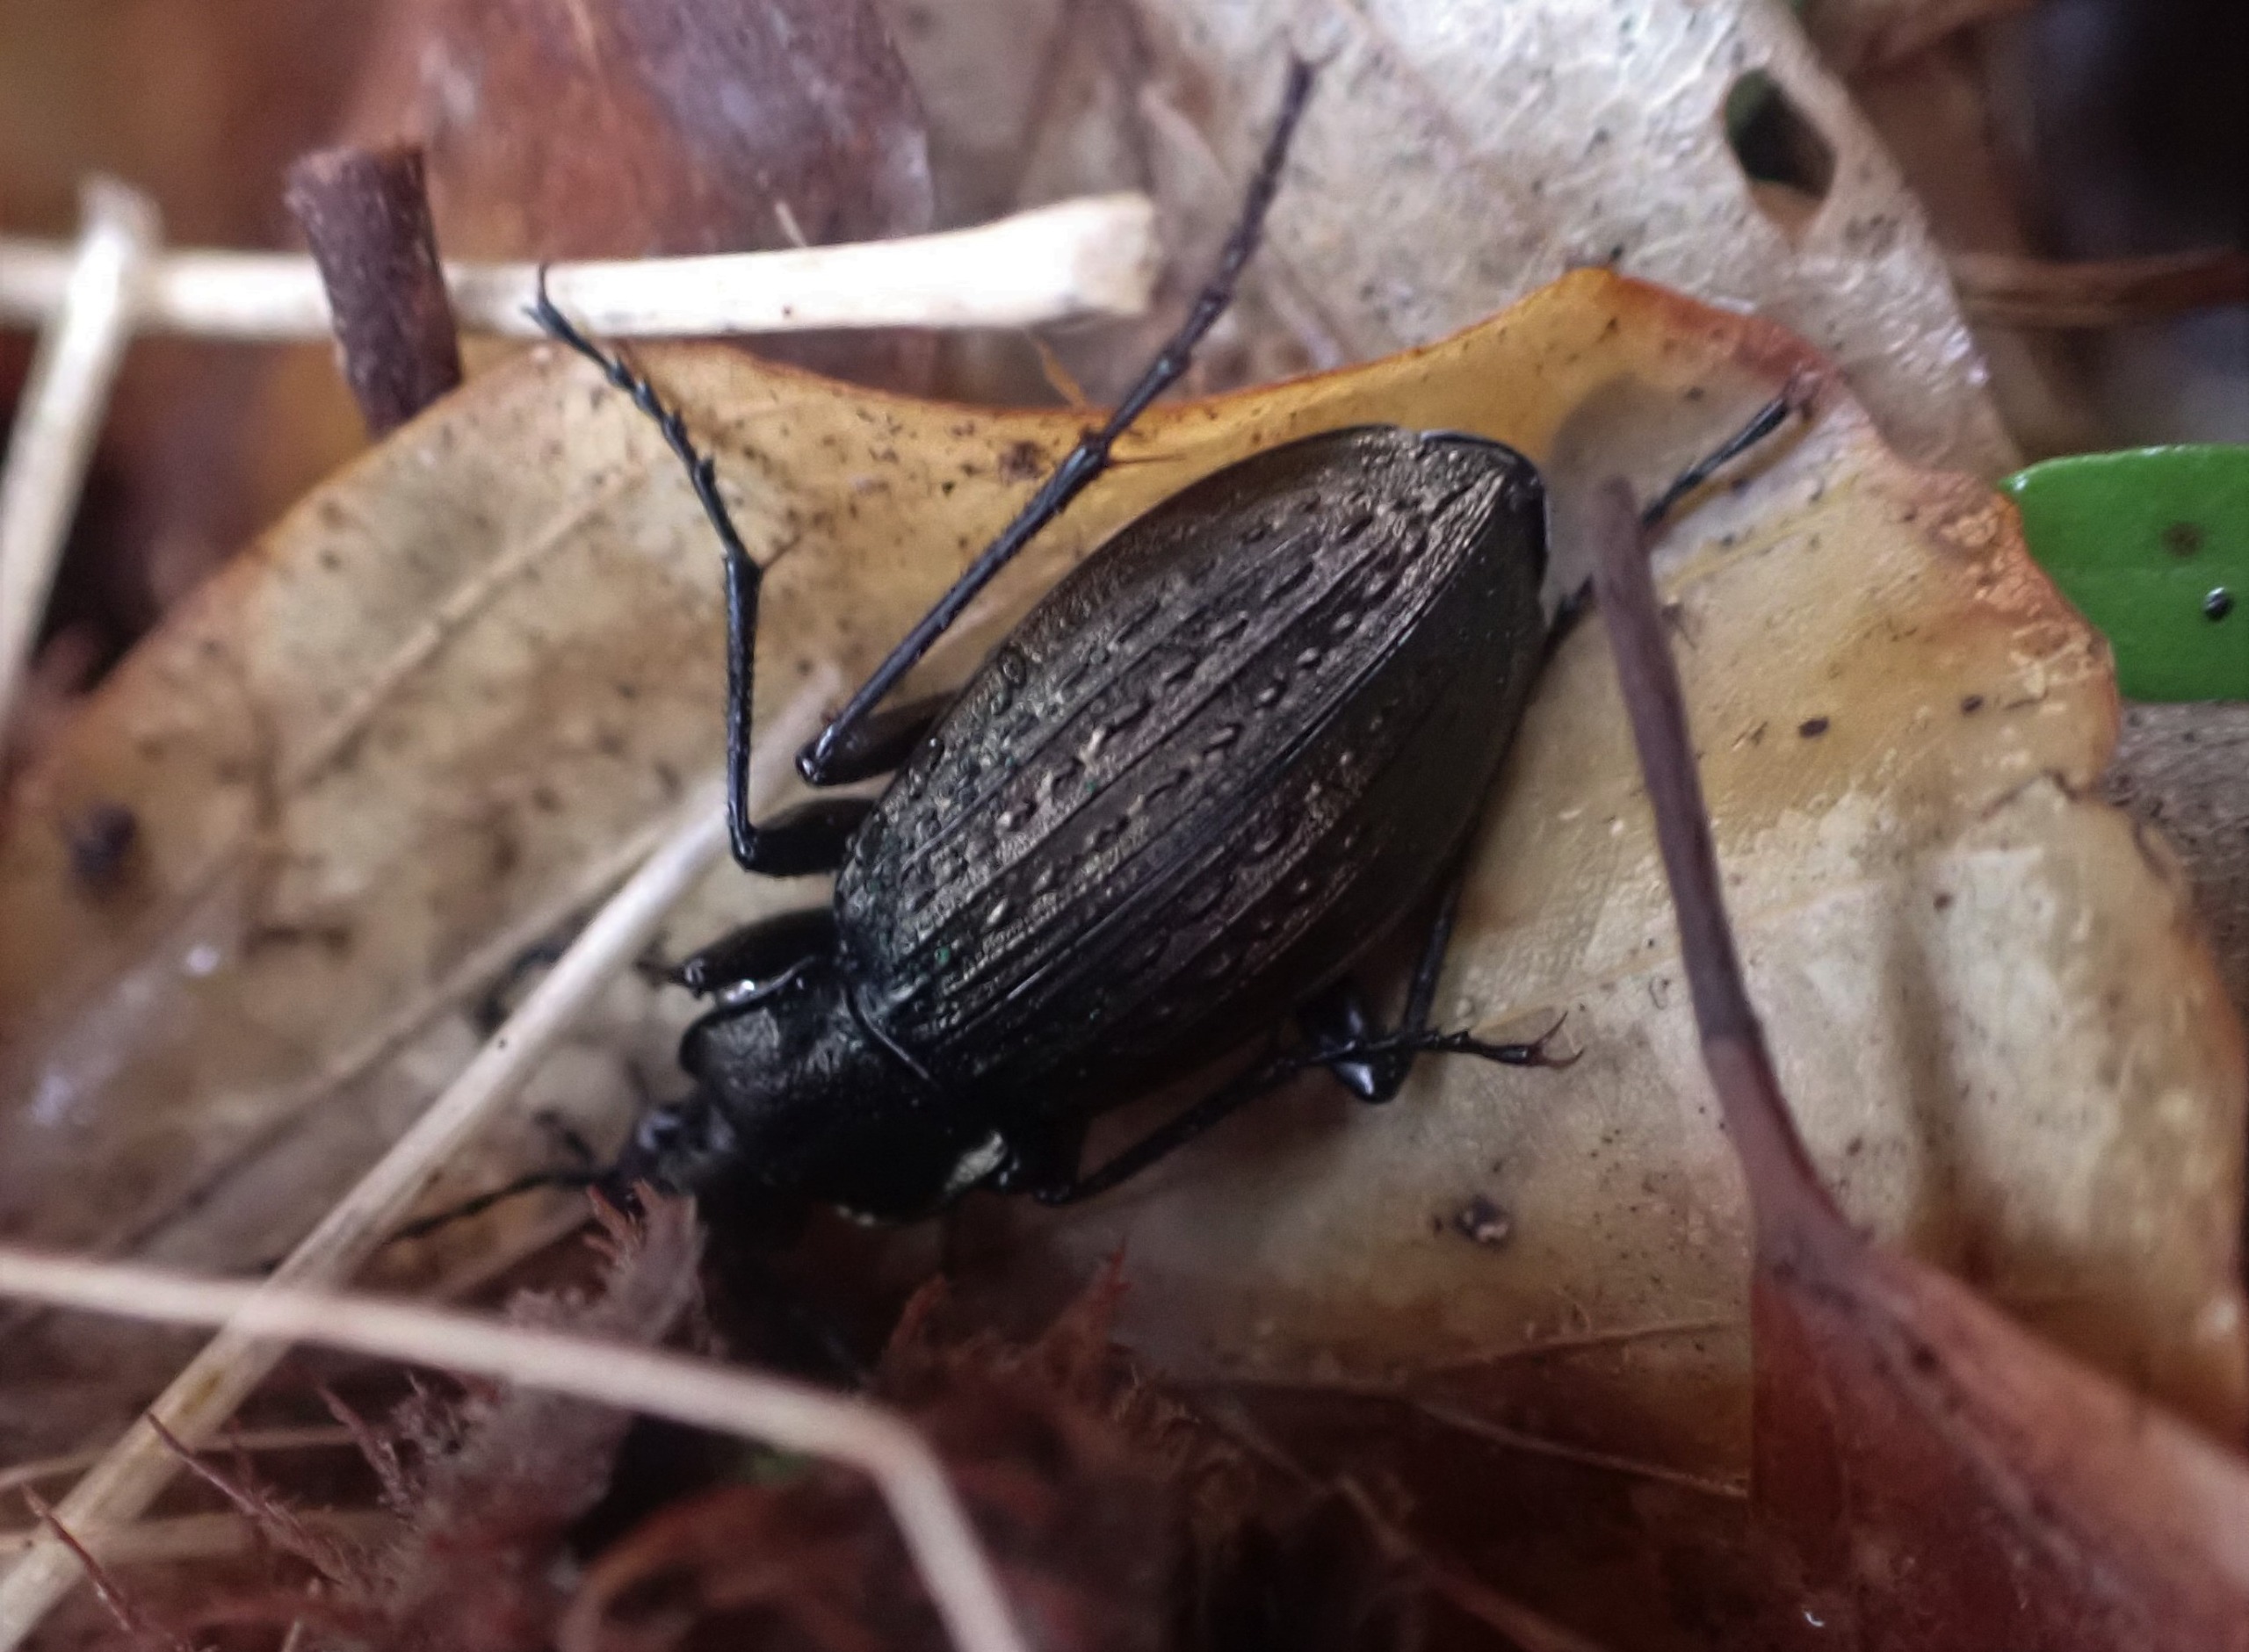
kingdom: Animalia
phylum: Arthropoda
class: Insecta
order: Coleoptera
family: Carabidae
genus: Carabus
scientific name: Carabus granulatus
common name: Kornet løber
